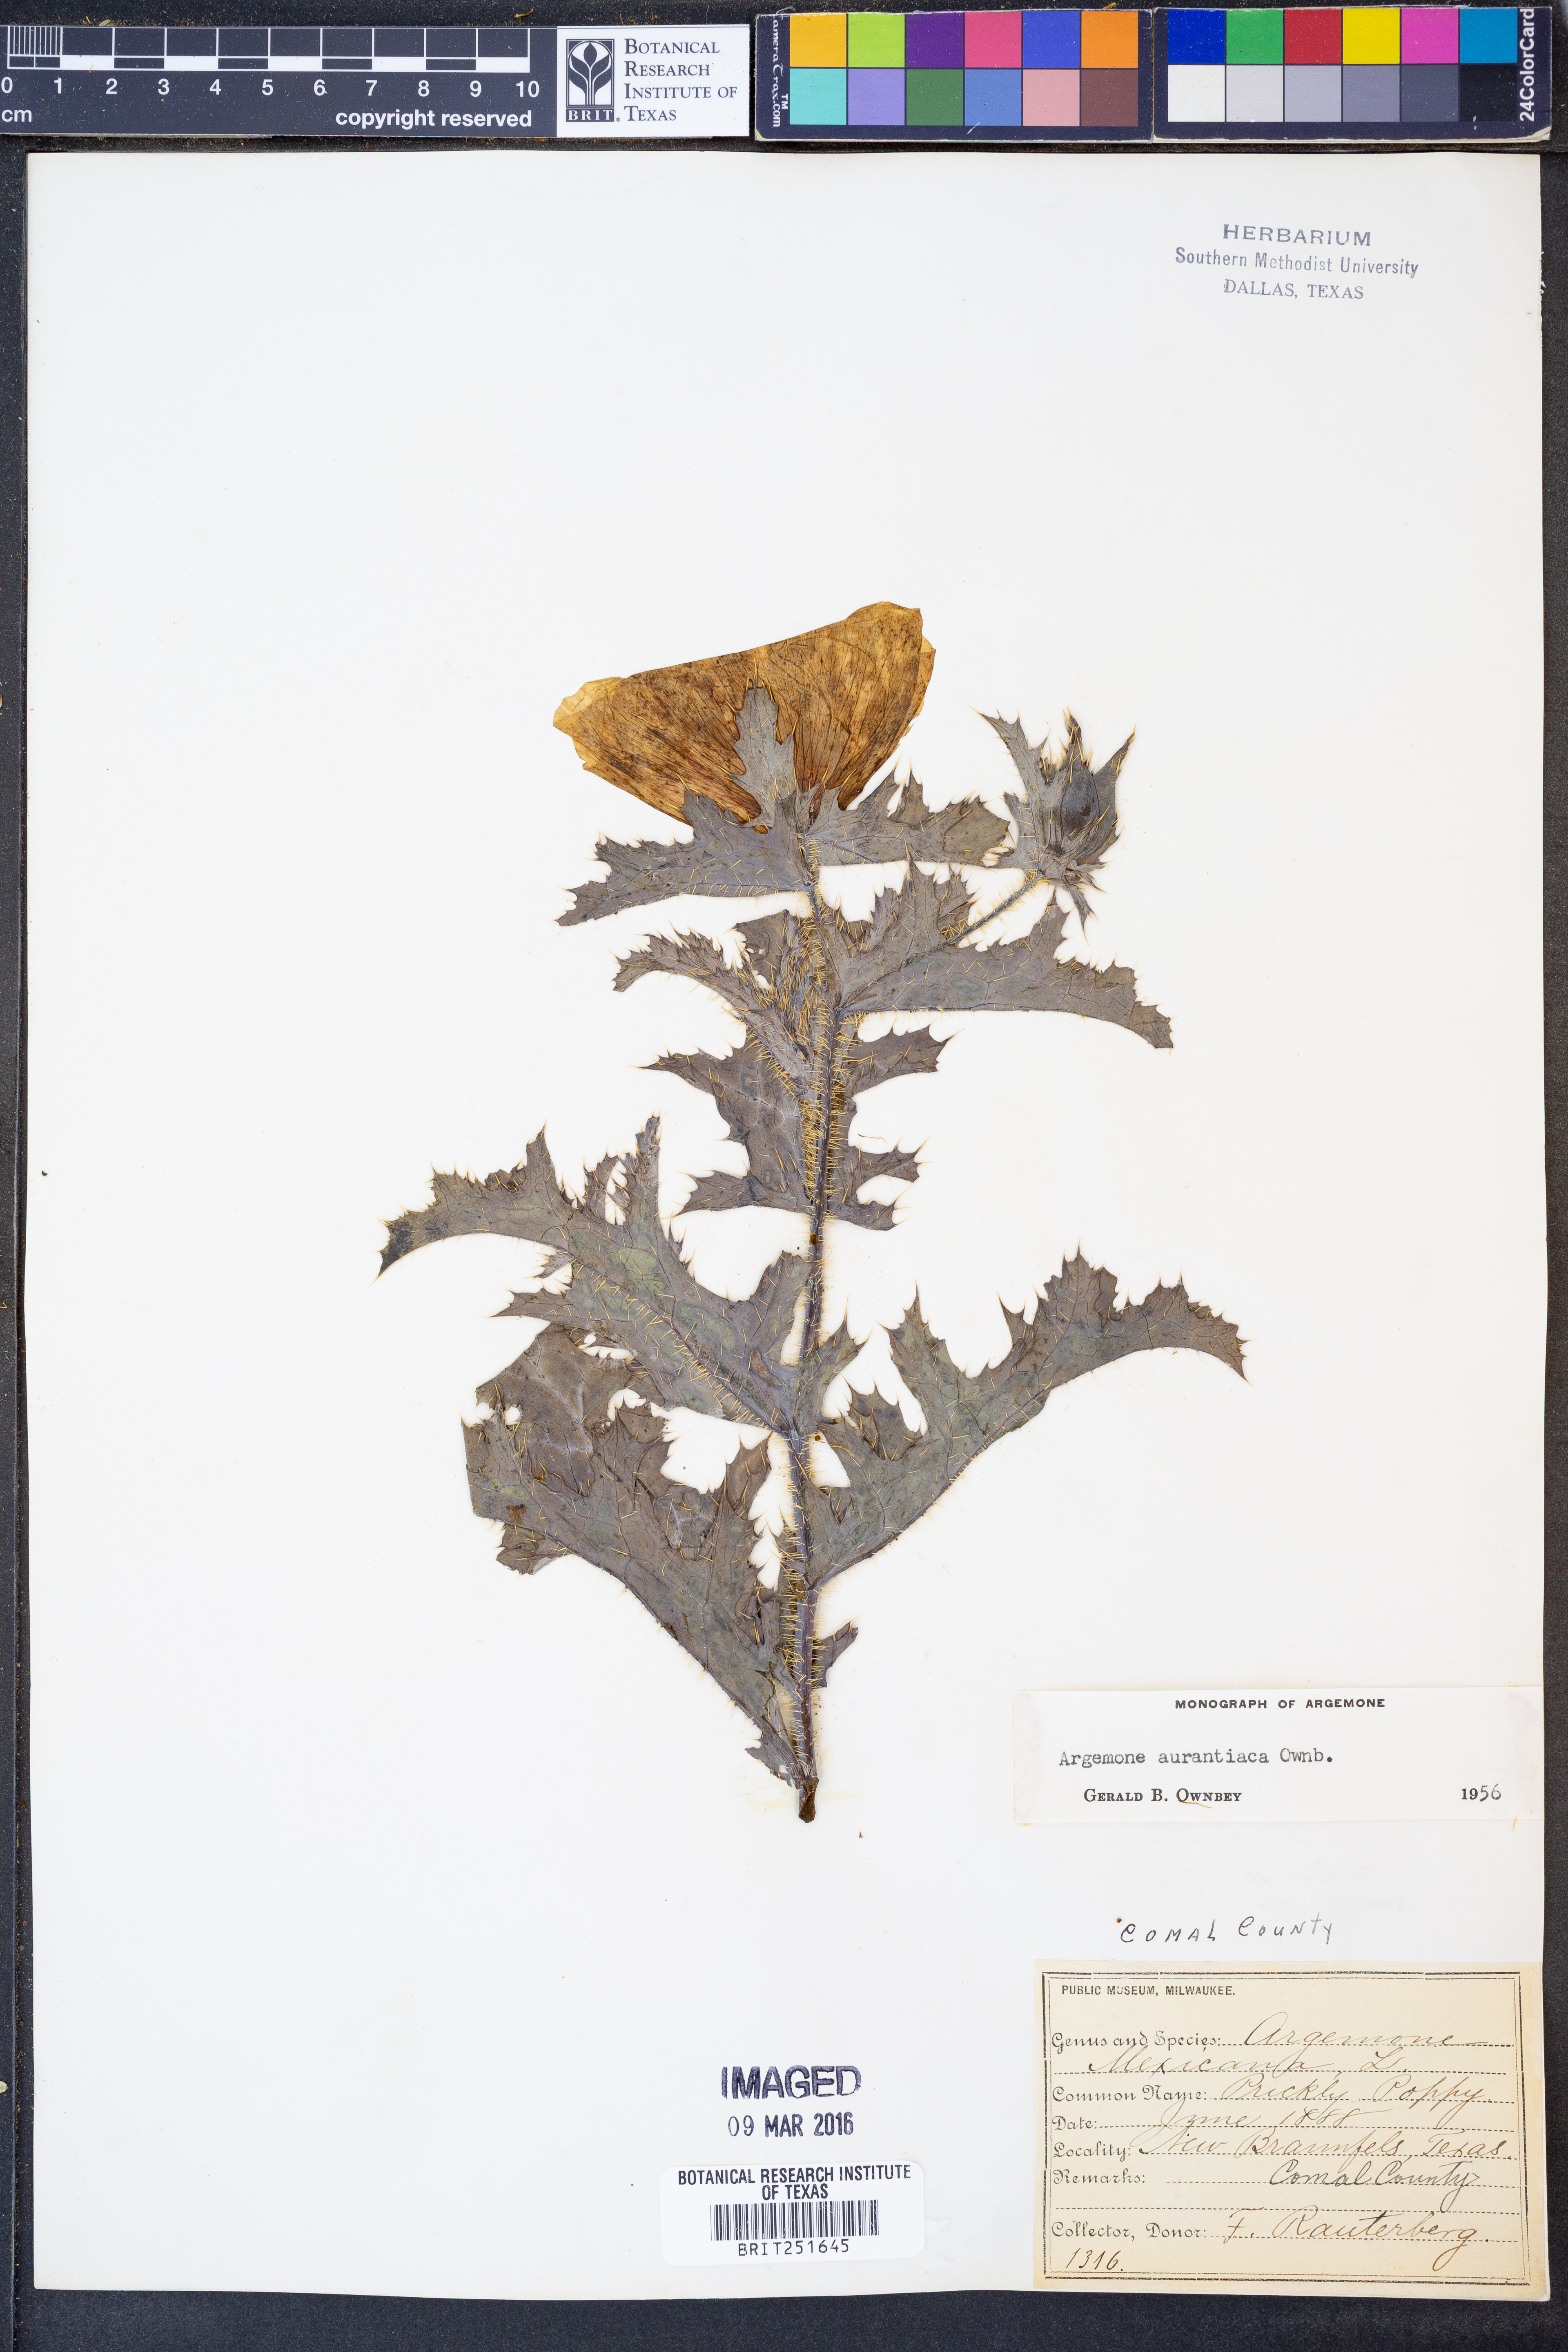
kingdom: Plantae
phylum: Tracheophyta
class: Magnoliopsida
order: Ranunculales
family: Papaveraceae
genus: Argemone
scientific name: Argemone aurantiaca
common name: Texas prickly-poppy
